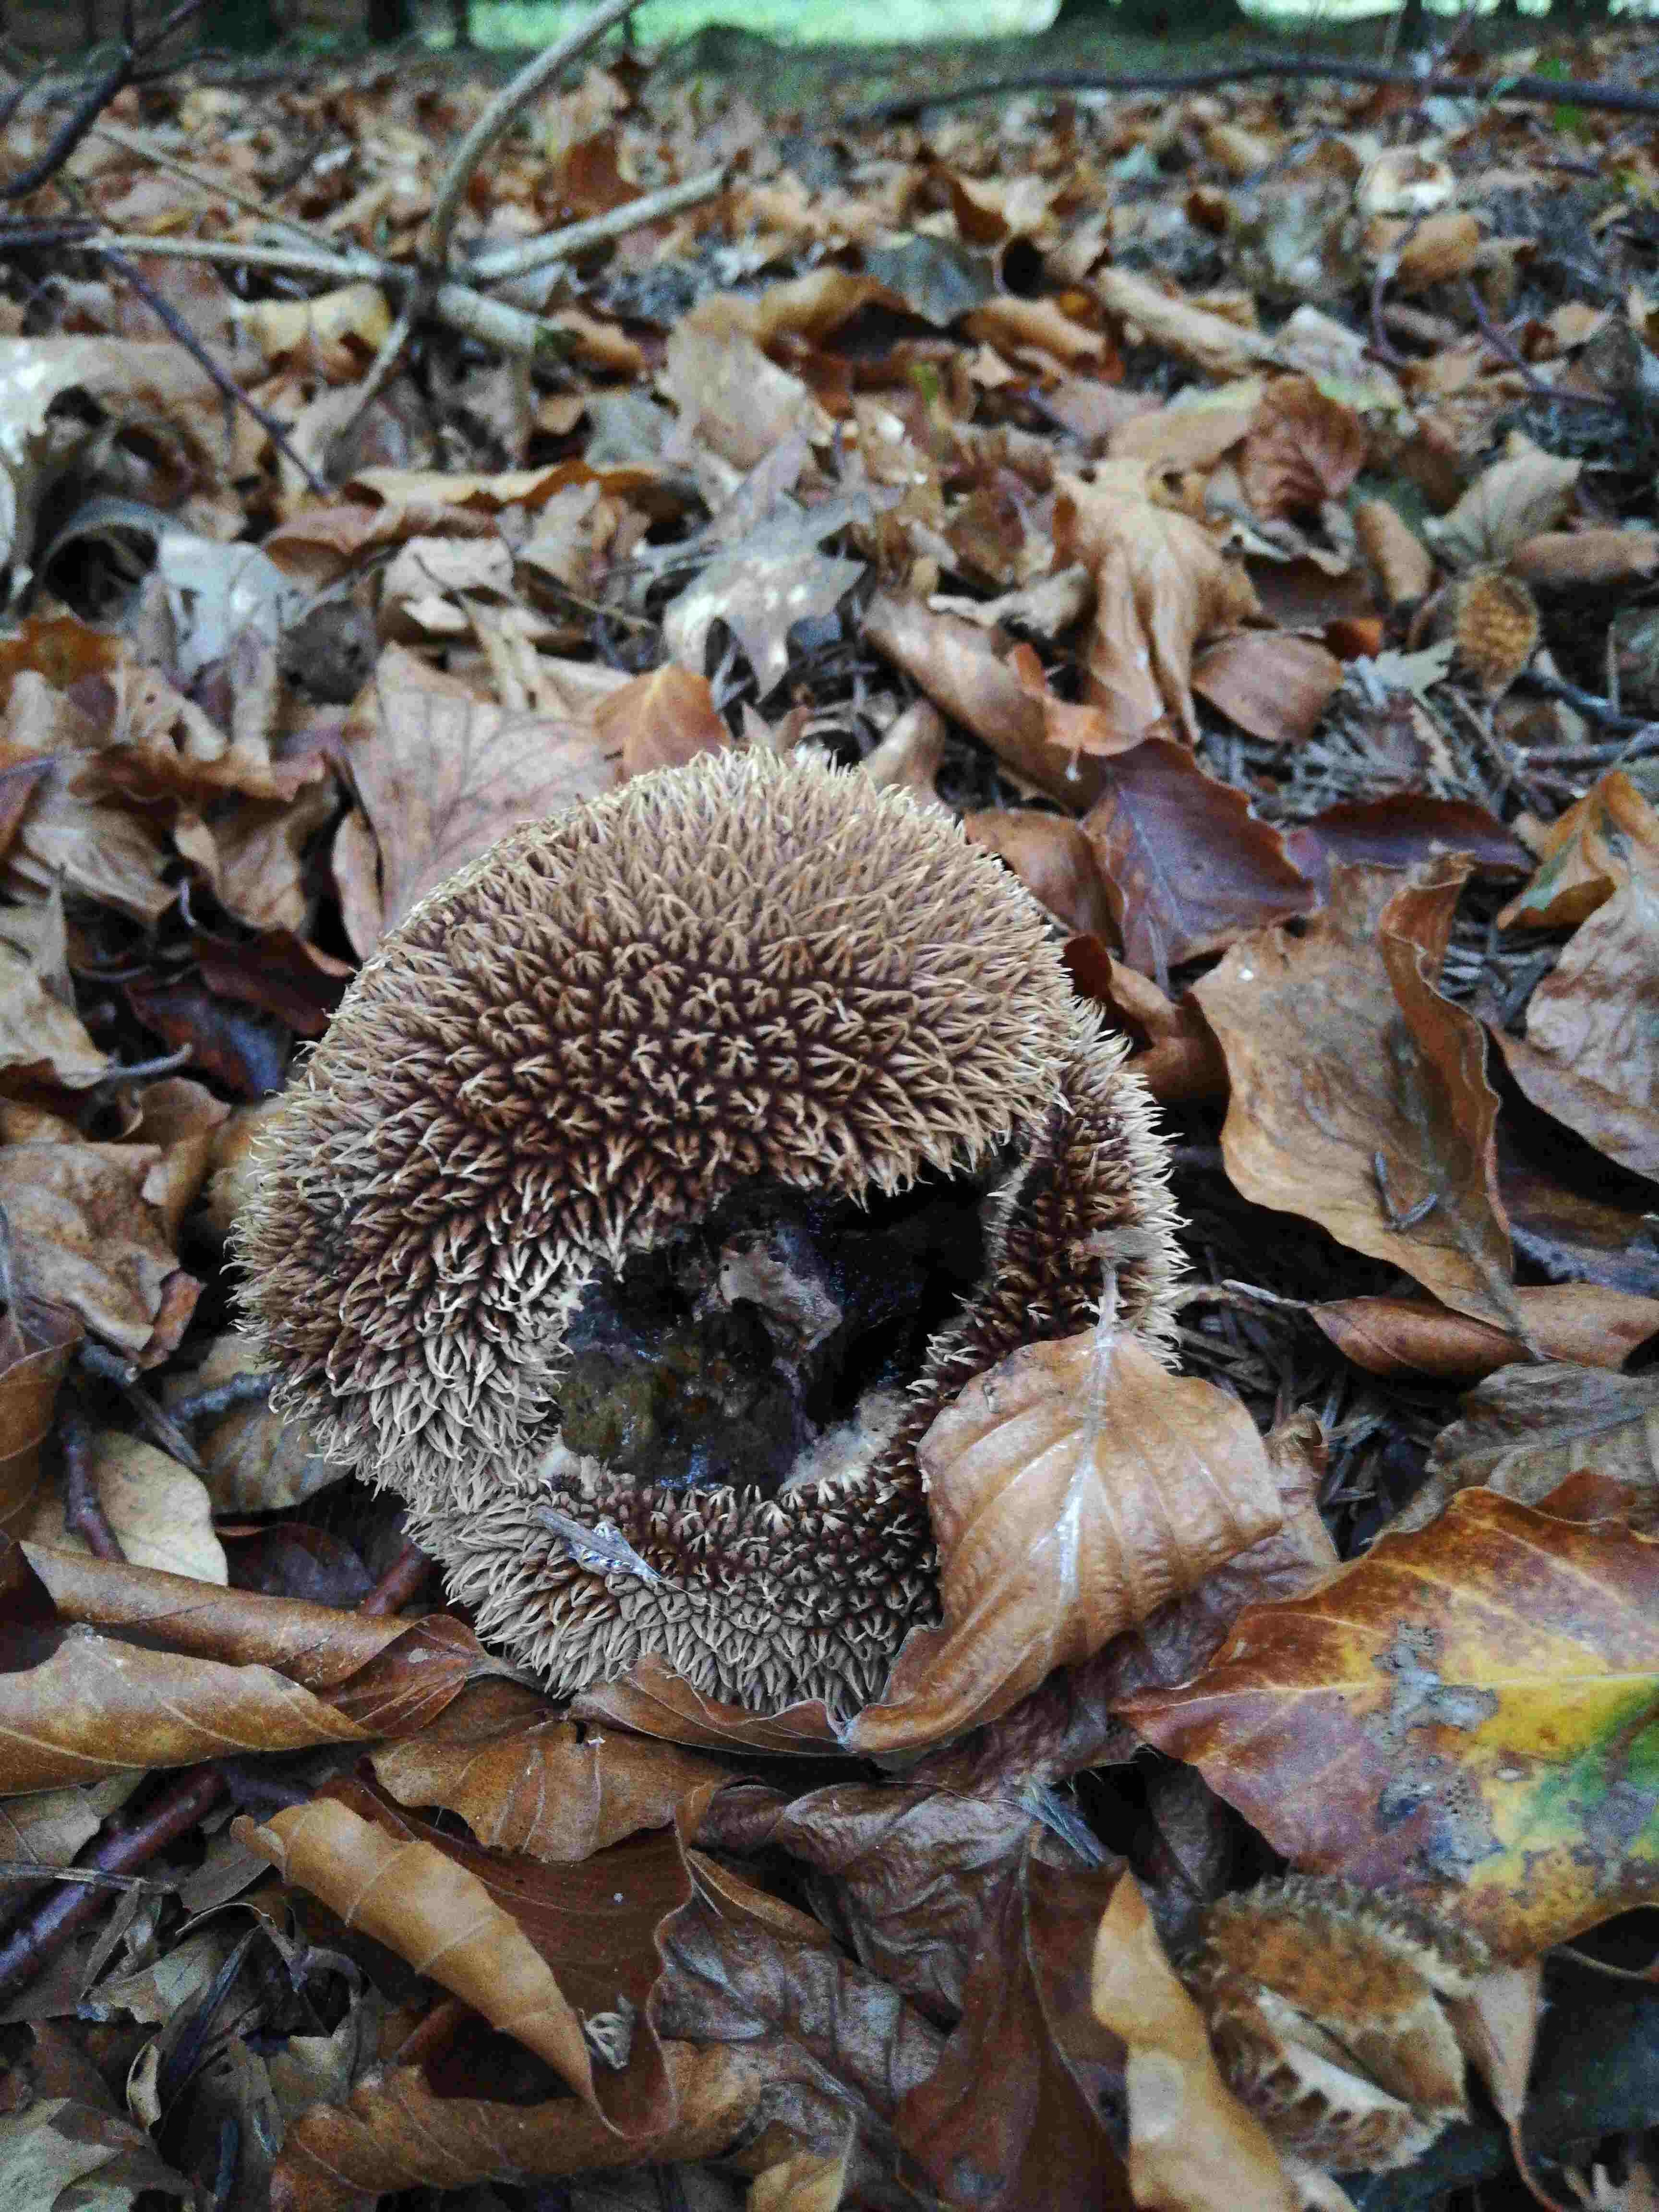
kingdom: Fungi
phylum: Basidiomycota
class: Agaricomycetes
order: Agaricales
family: Lycoperdaceae
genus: Lycoperdon
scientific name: Lycoperdon echinatum
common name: pindsvine-støvbold
